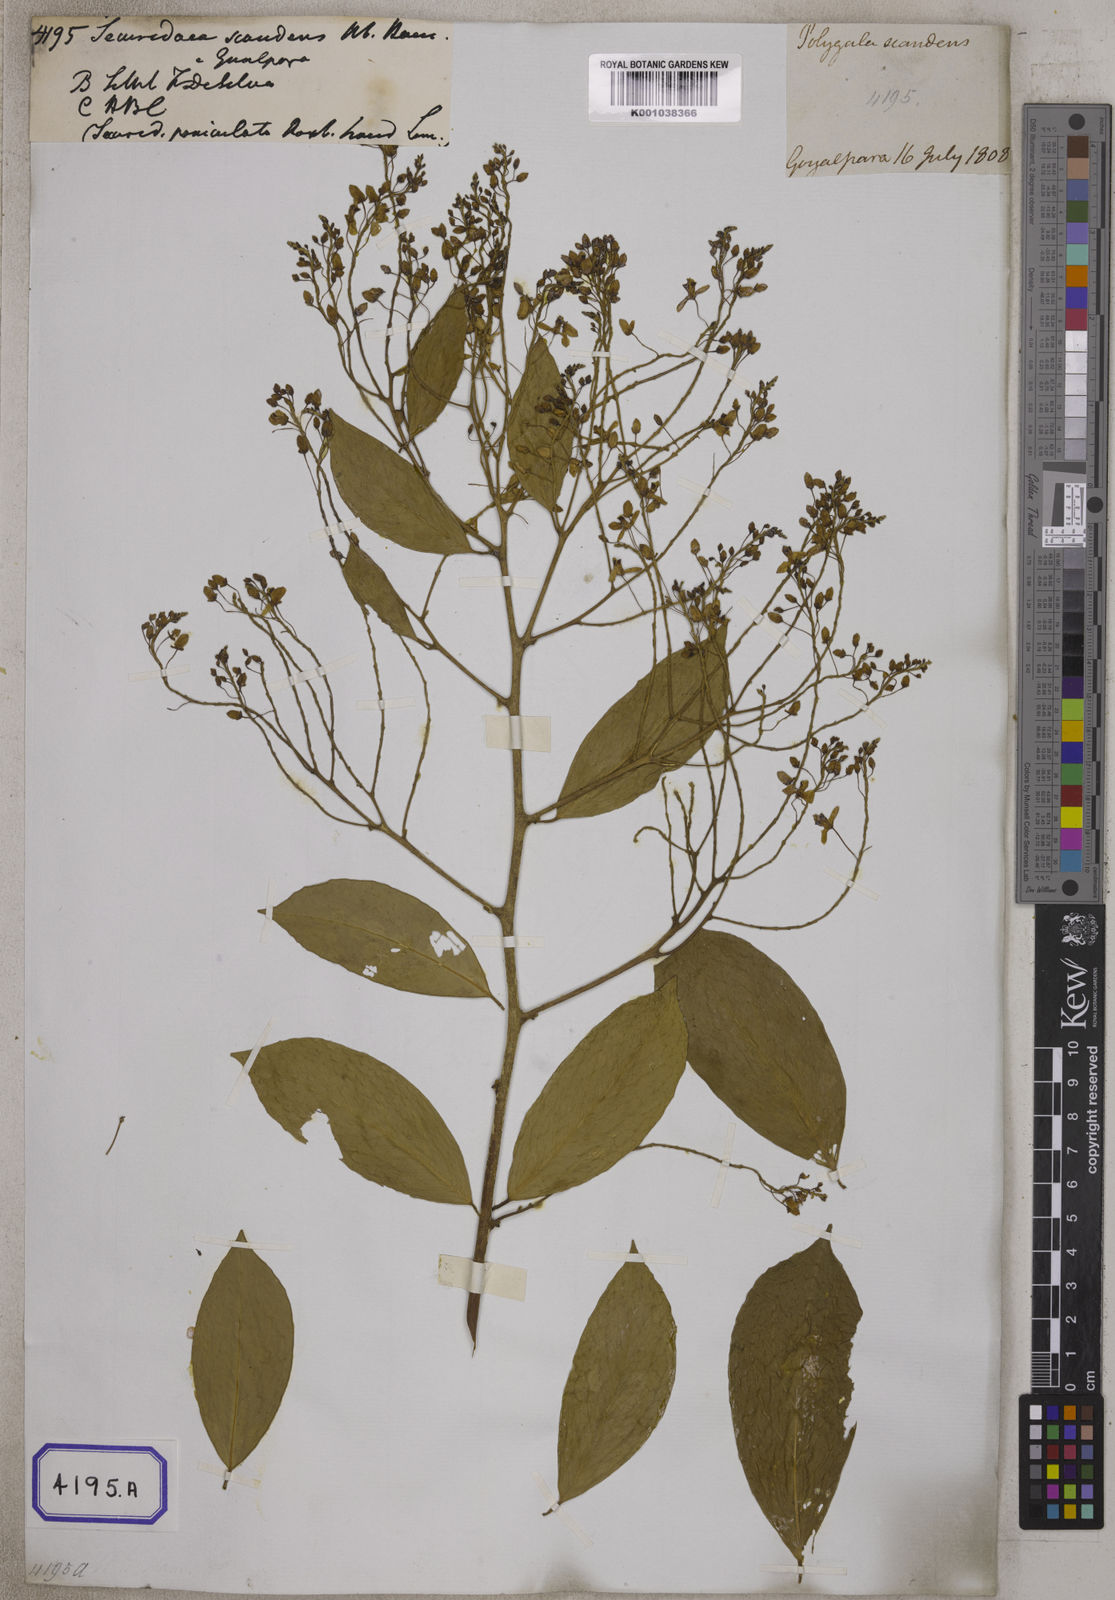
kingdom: Plantae
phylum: Tracheophyta
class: Magnoliopsida
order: Fabales
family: Polygalaceae
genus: Securidaca
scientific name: Securidaca
